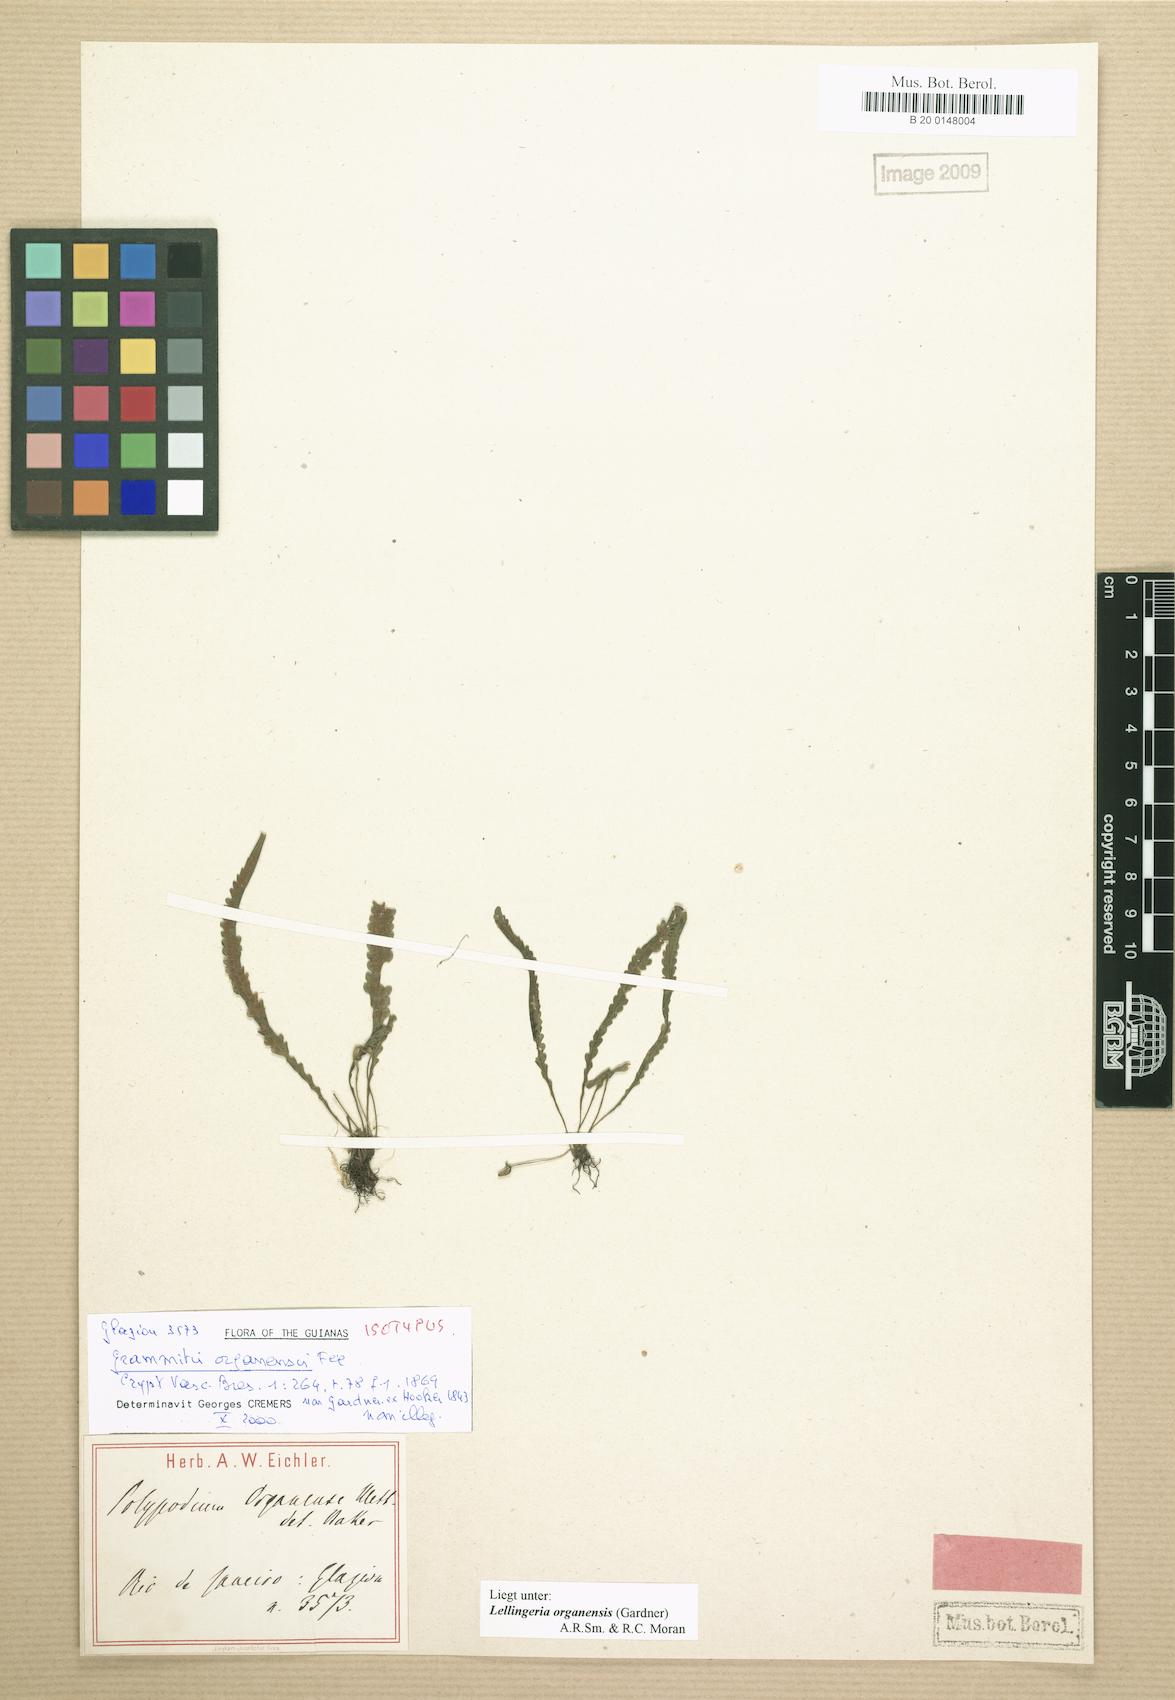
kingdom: Plantae
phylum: Tracheophyta
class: Polypodiopsida
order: Polypodiales
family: Polypodiaceae
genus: Leucotrichum
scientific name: Leucotrichum organense
